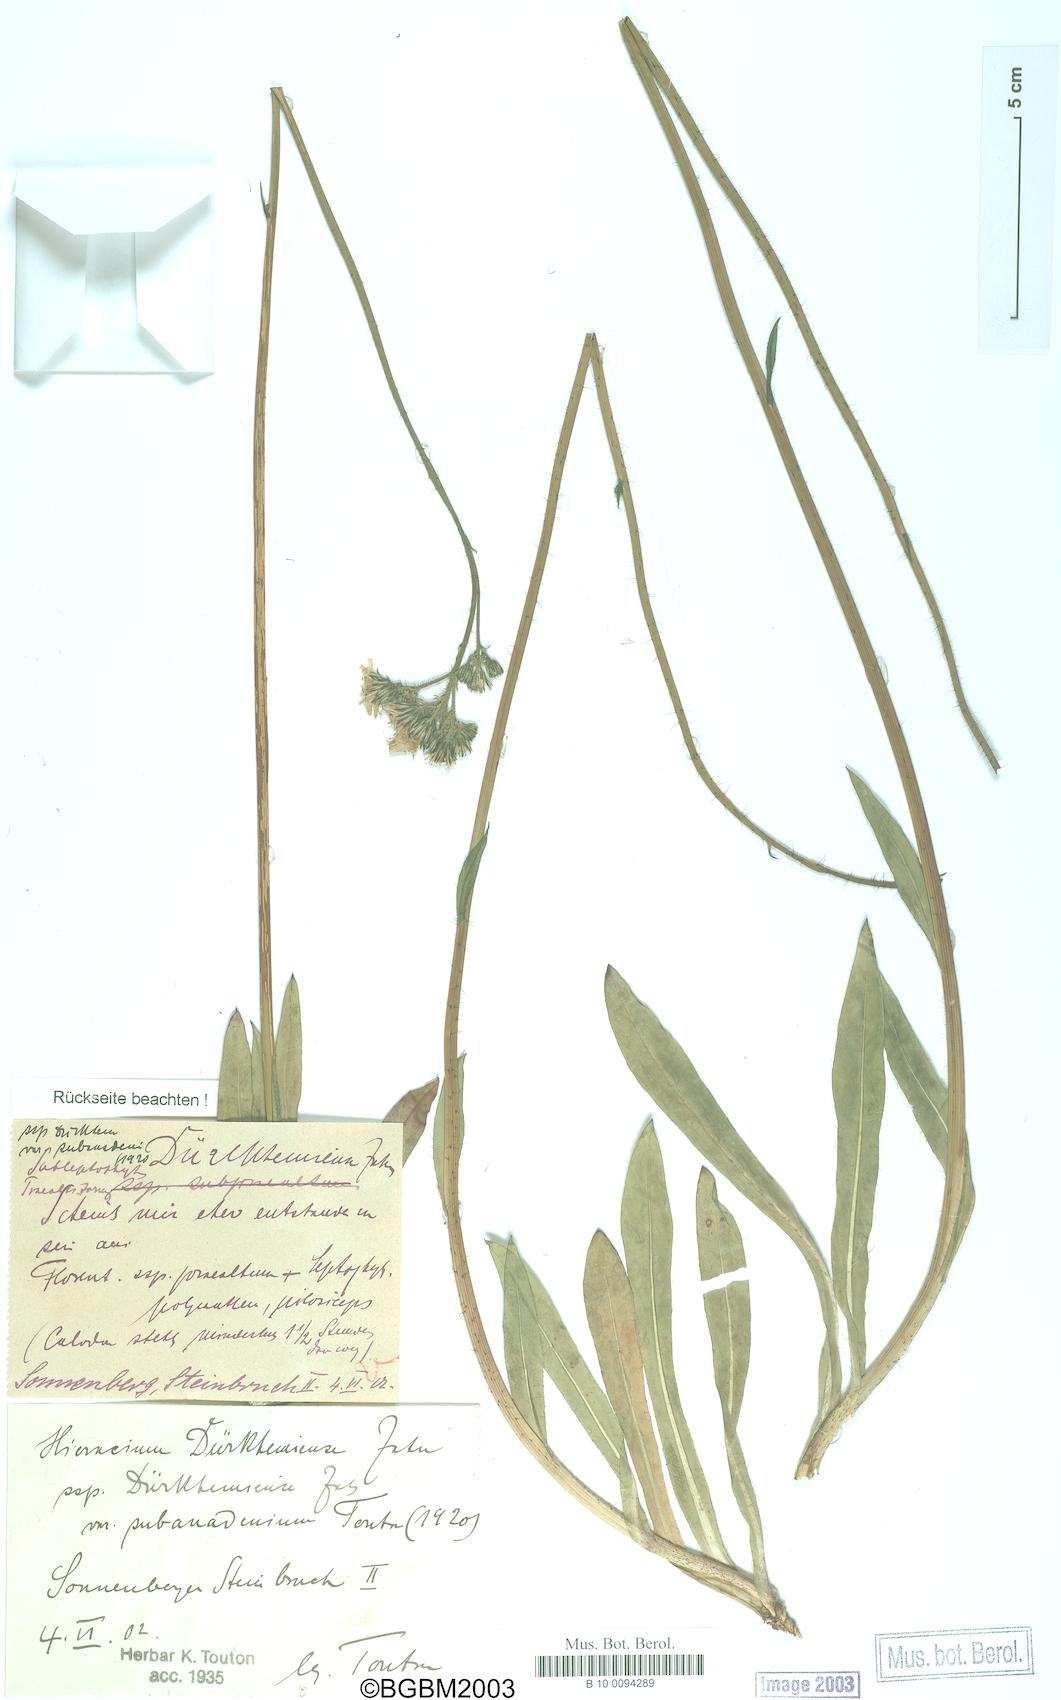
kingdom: Plantae
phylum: Tracheophyta
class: Magnoliopsida
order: Asterales
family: Asteraceae
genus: Pilosella
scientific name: Pilosella duerkhemiensis
